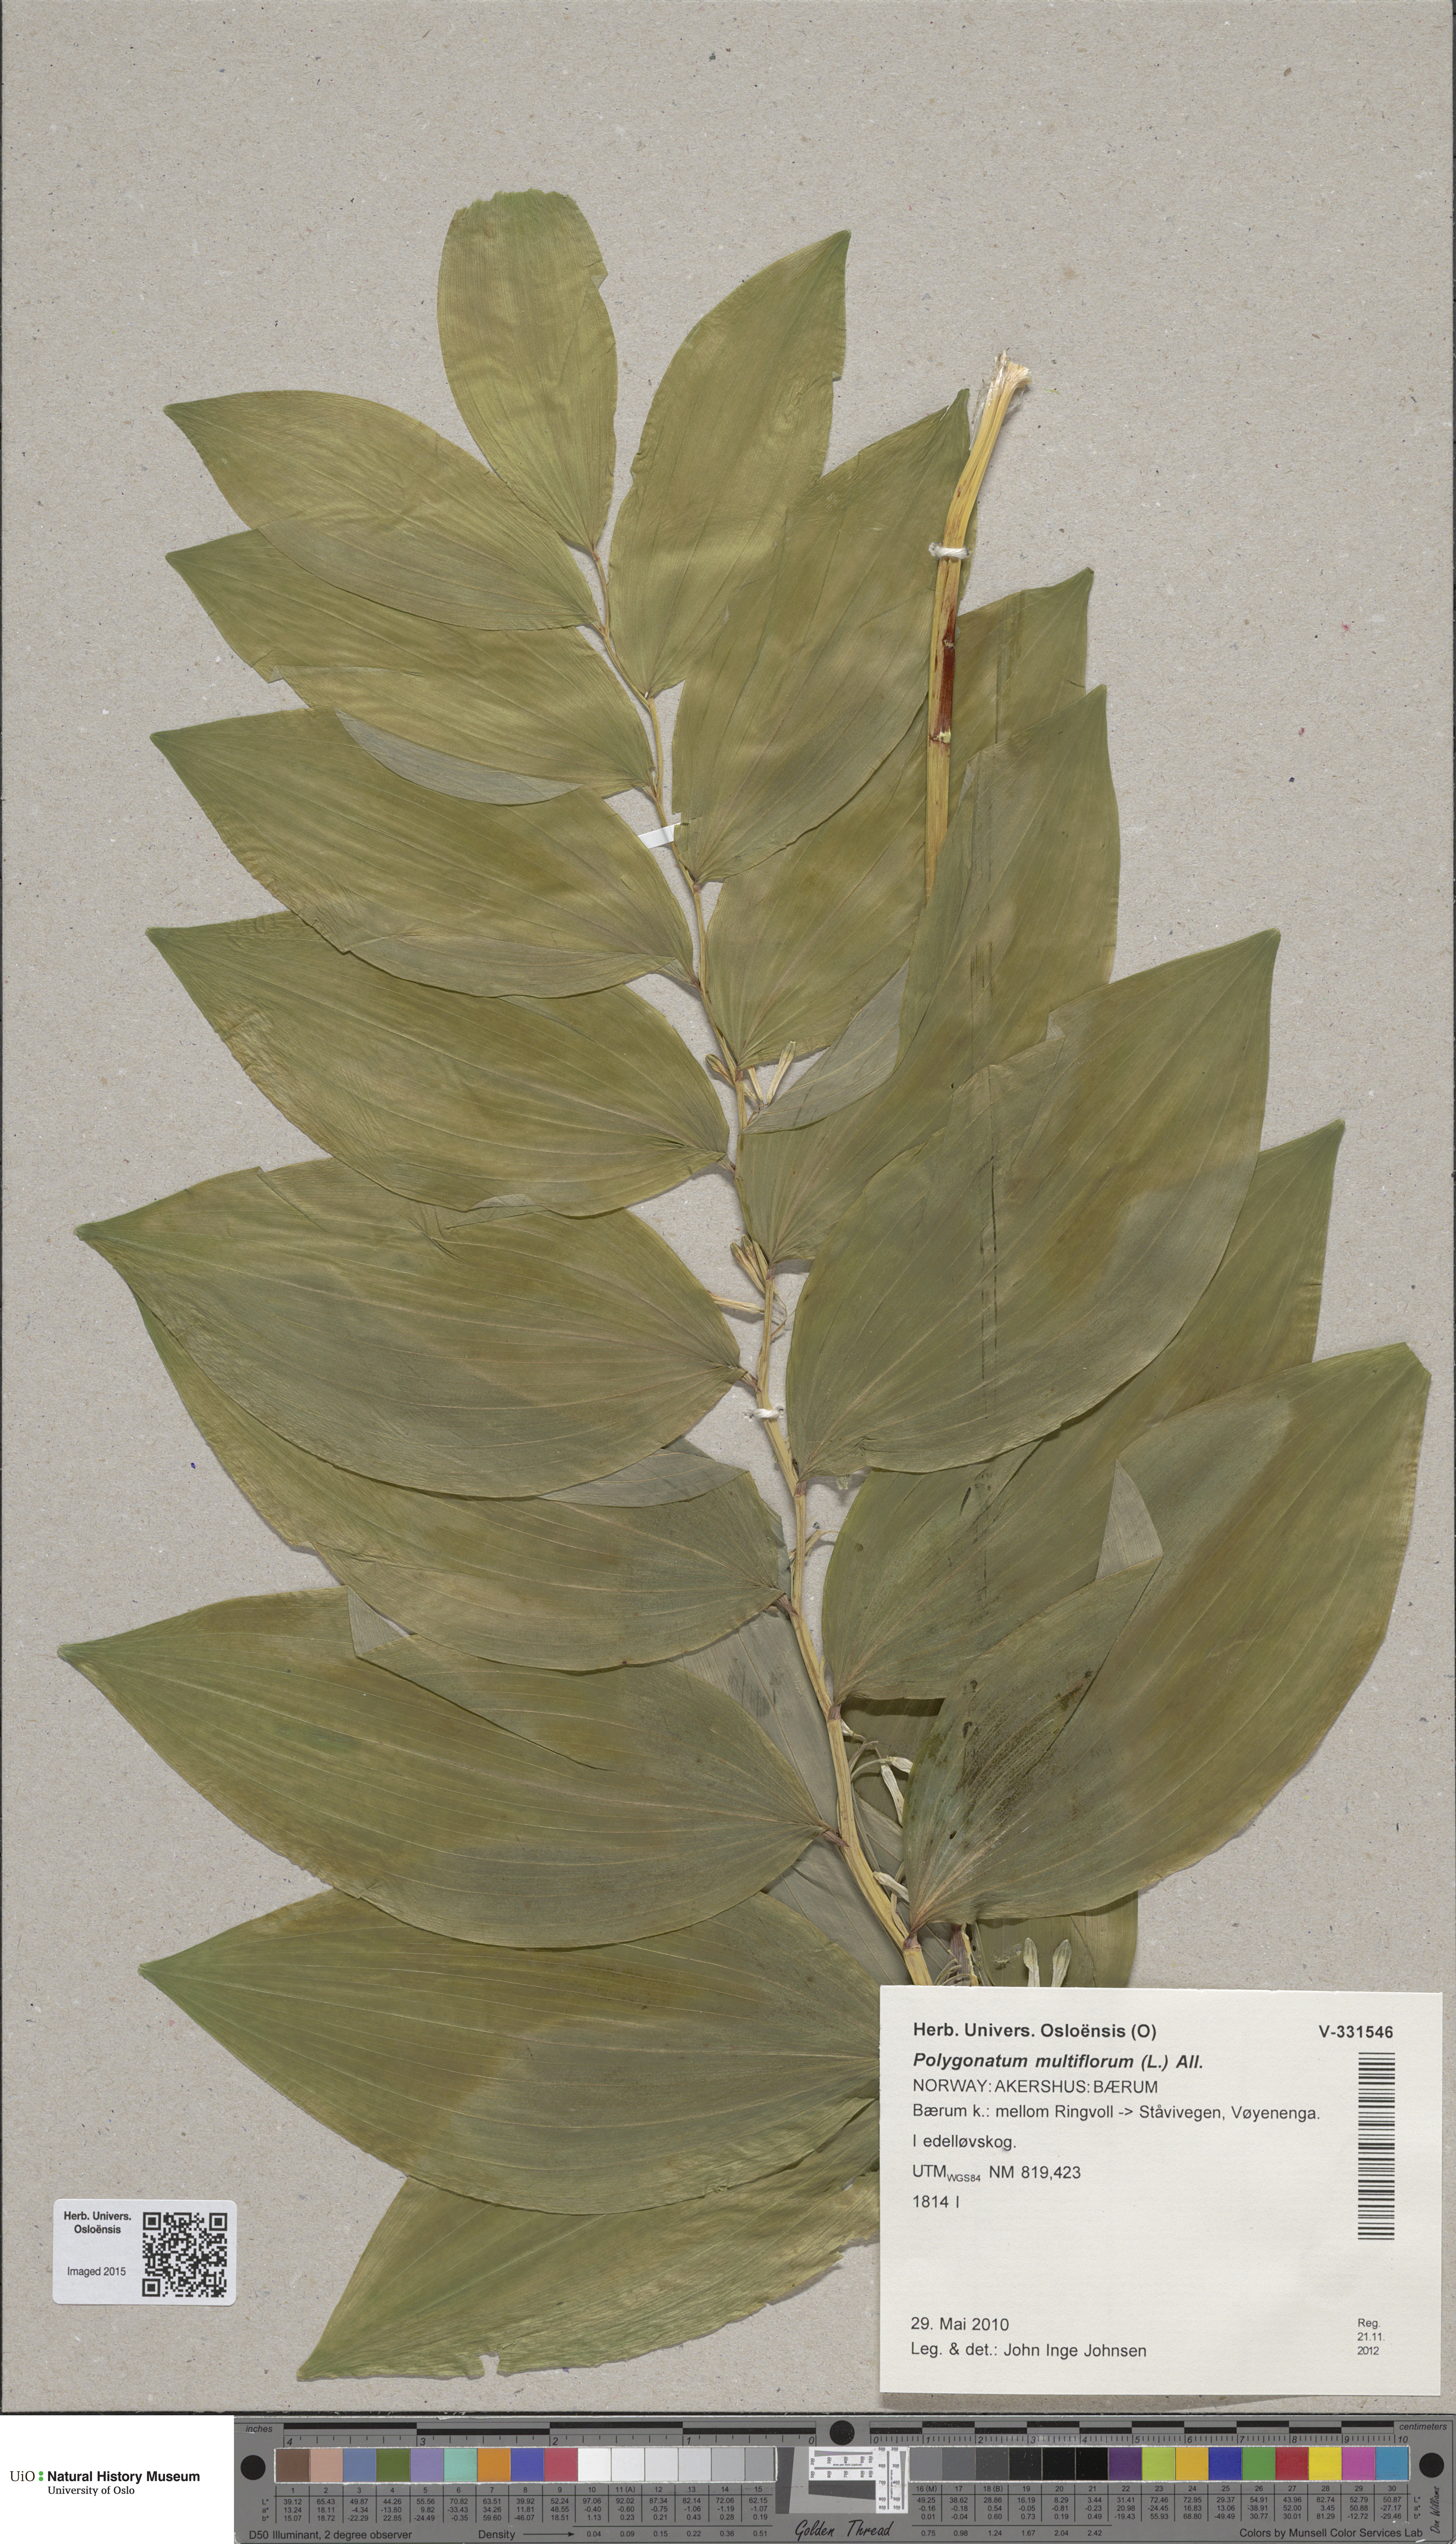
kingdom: Plantae
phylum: Tracheophyta
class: Liliopsida
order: Asparagales
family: Asparagaceae
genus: Polygonatum
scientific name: Polygonatum multiflorum
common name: Solomon's-seal
